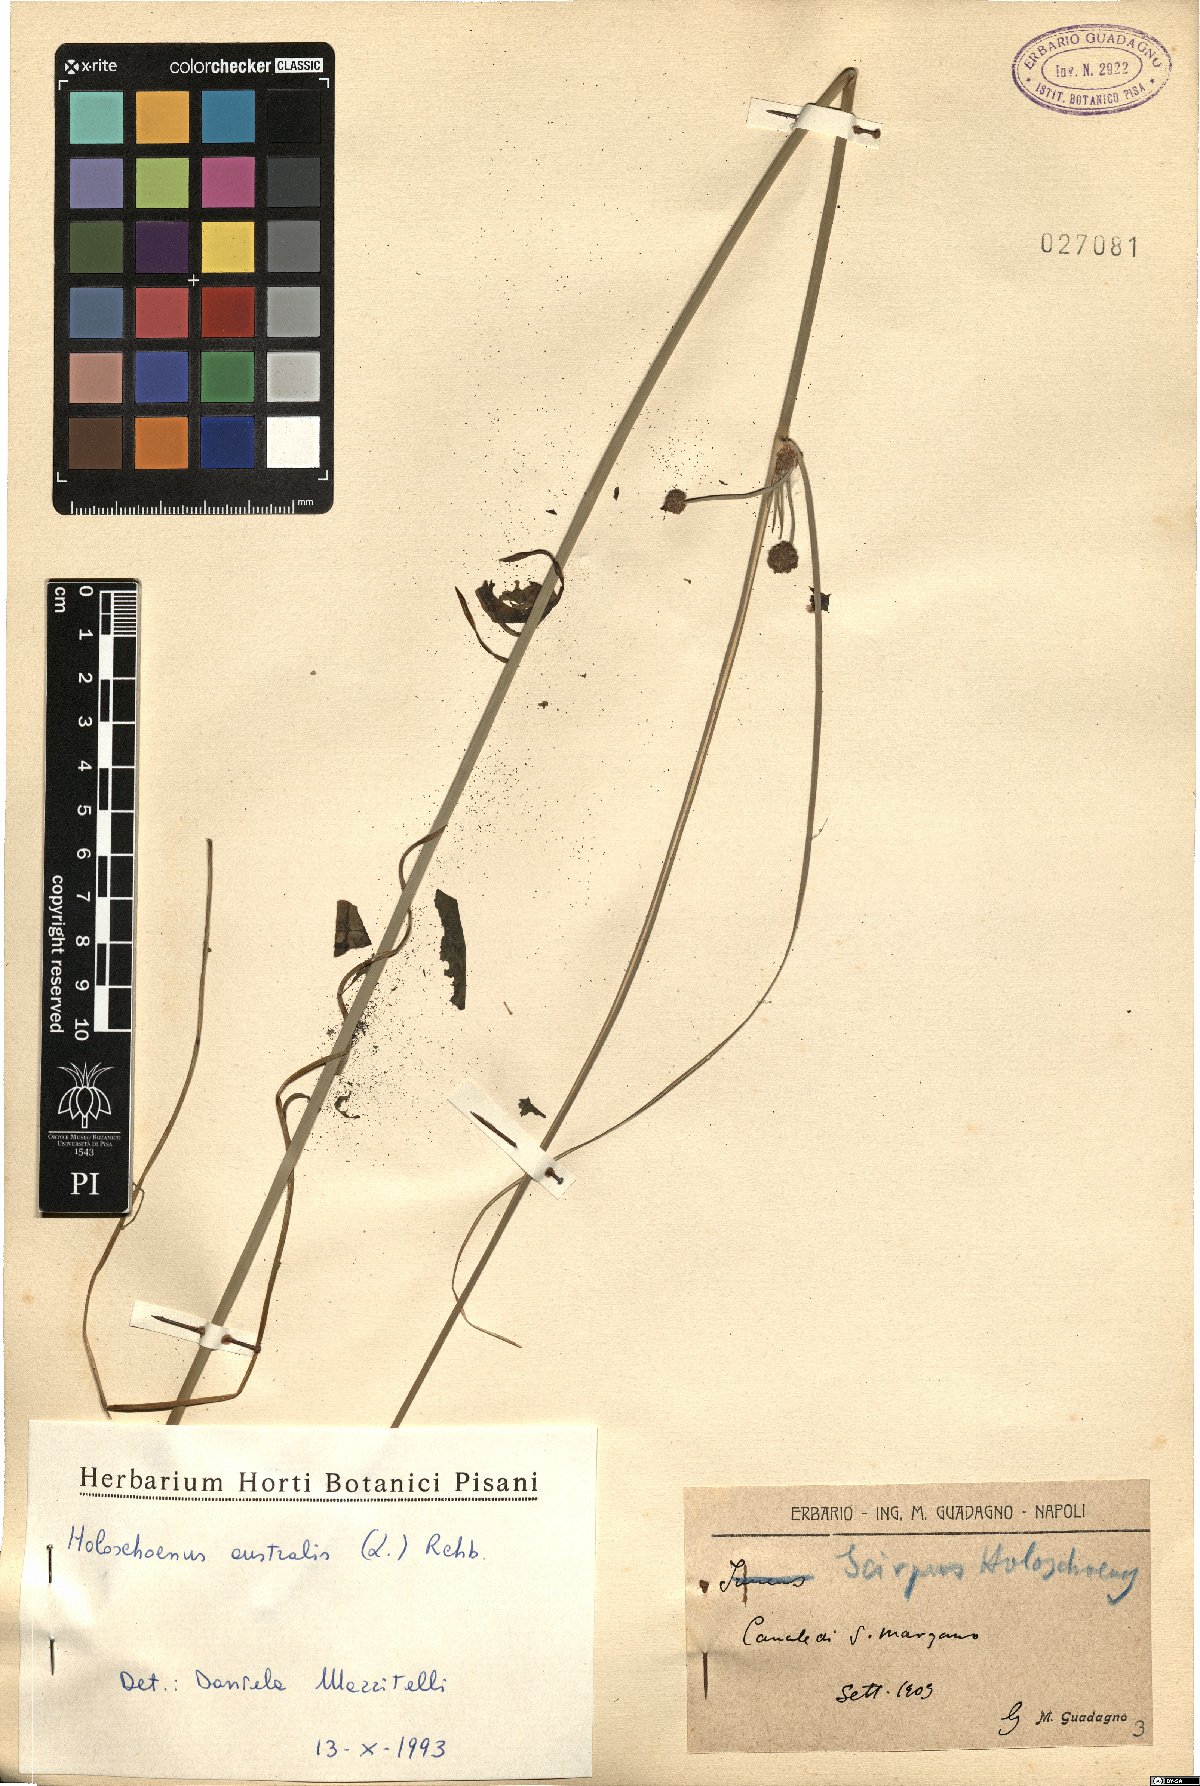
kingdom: Plantae
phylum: Tracheophyta
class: Liliopsida
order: Poales
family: Cyperaceae
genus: Scirpoides
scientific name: Scirpoides holoschoenus
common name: Round-headed club-rush
